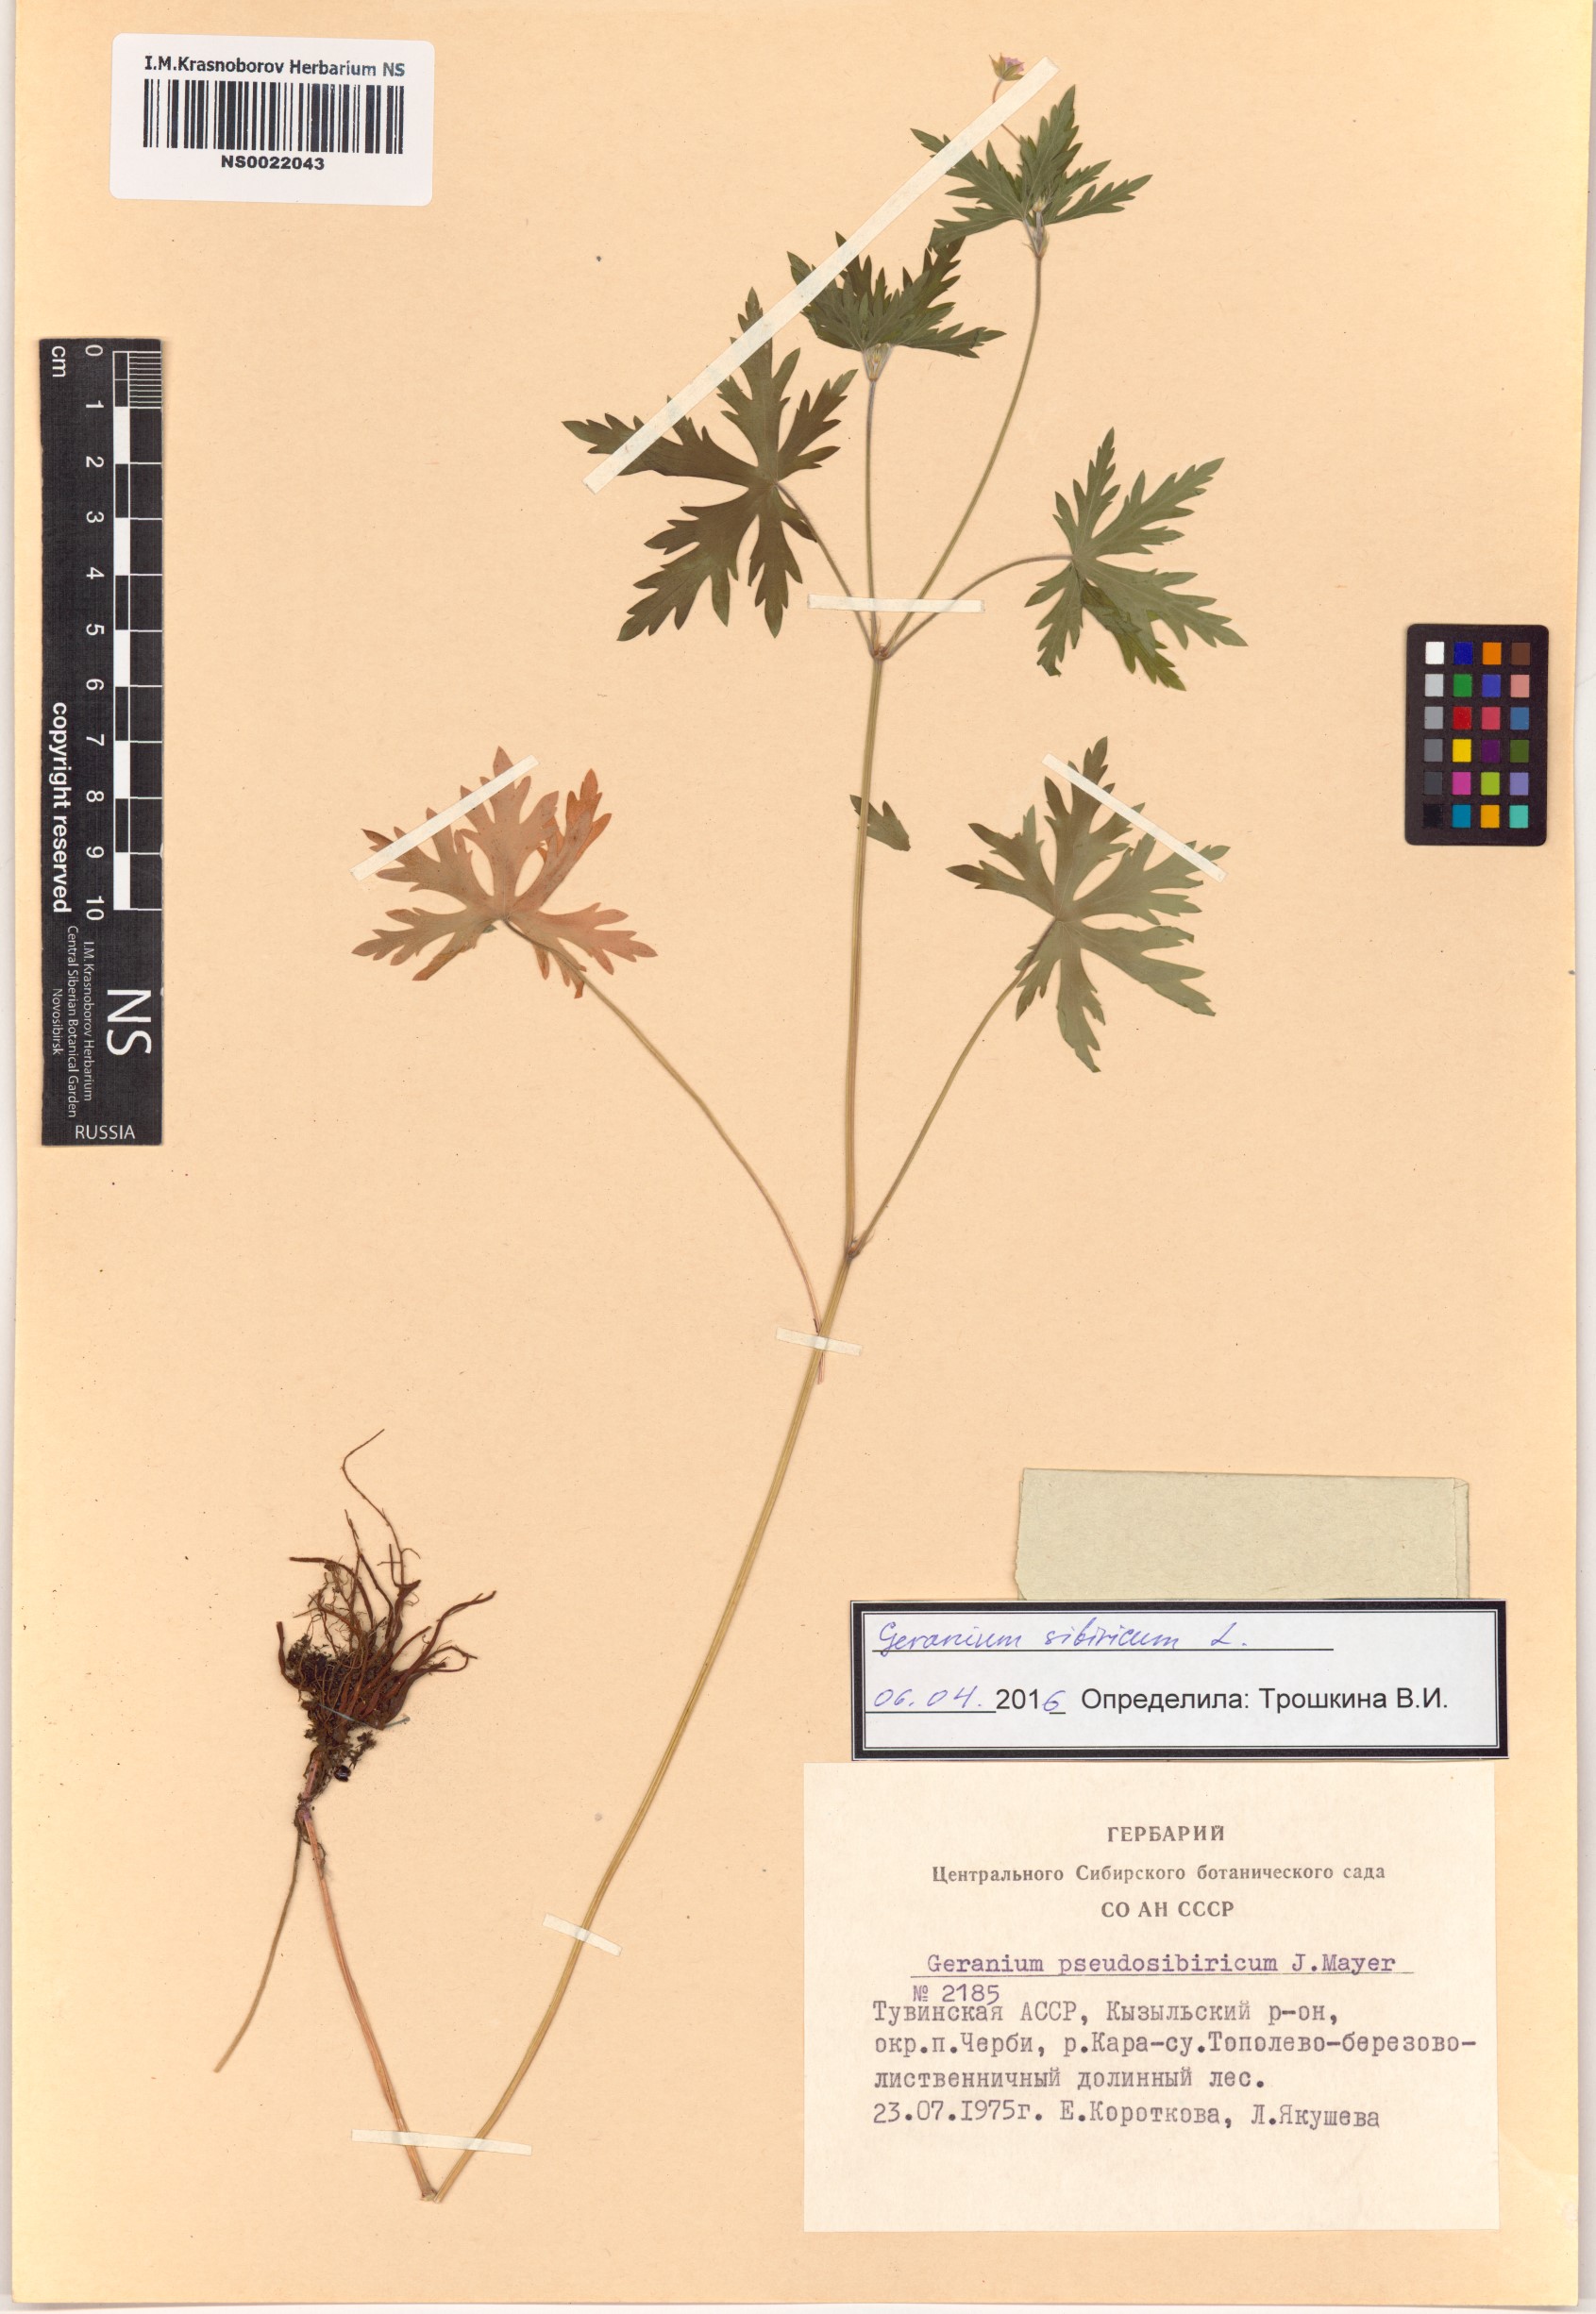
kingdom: Plantae
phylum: Tracheophyta
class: Magnoliopsida
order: Geraniales
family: Geraniaceae
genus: Geranium
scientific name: Geranium sibiricum
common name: Siberian crane's-bill
